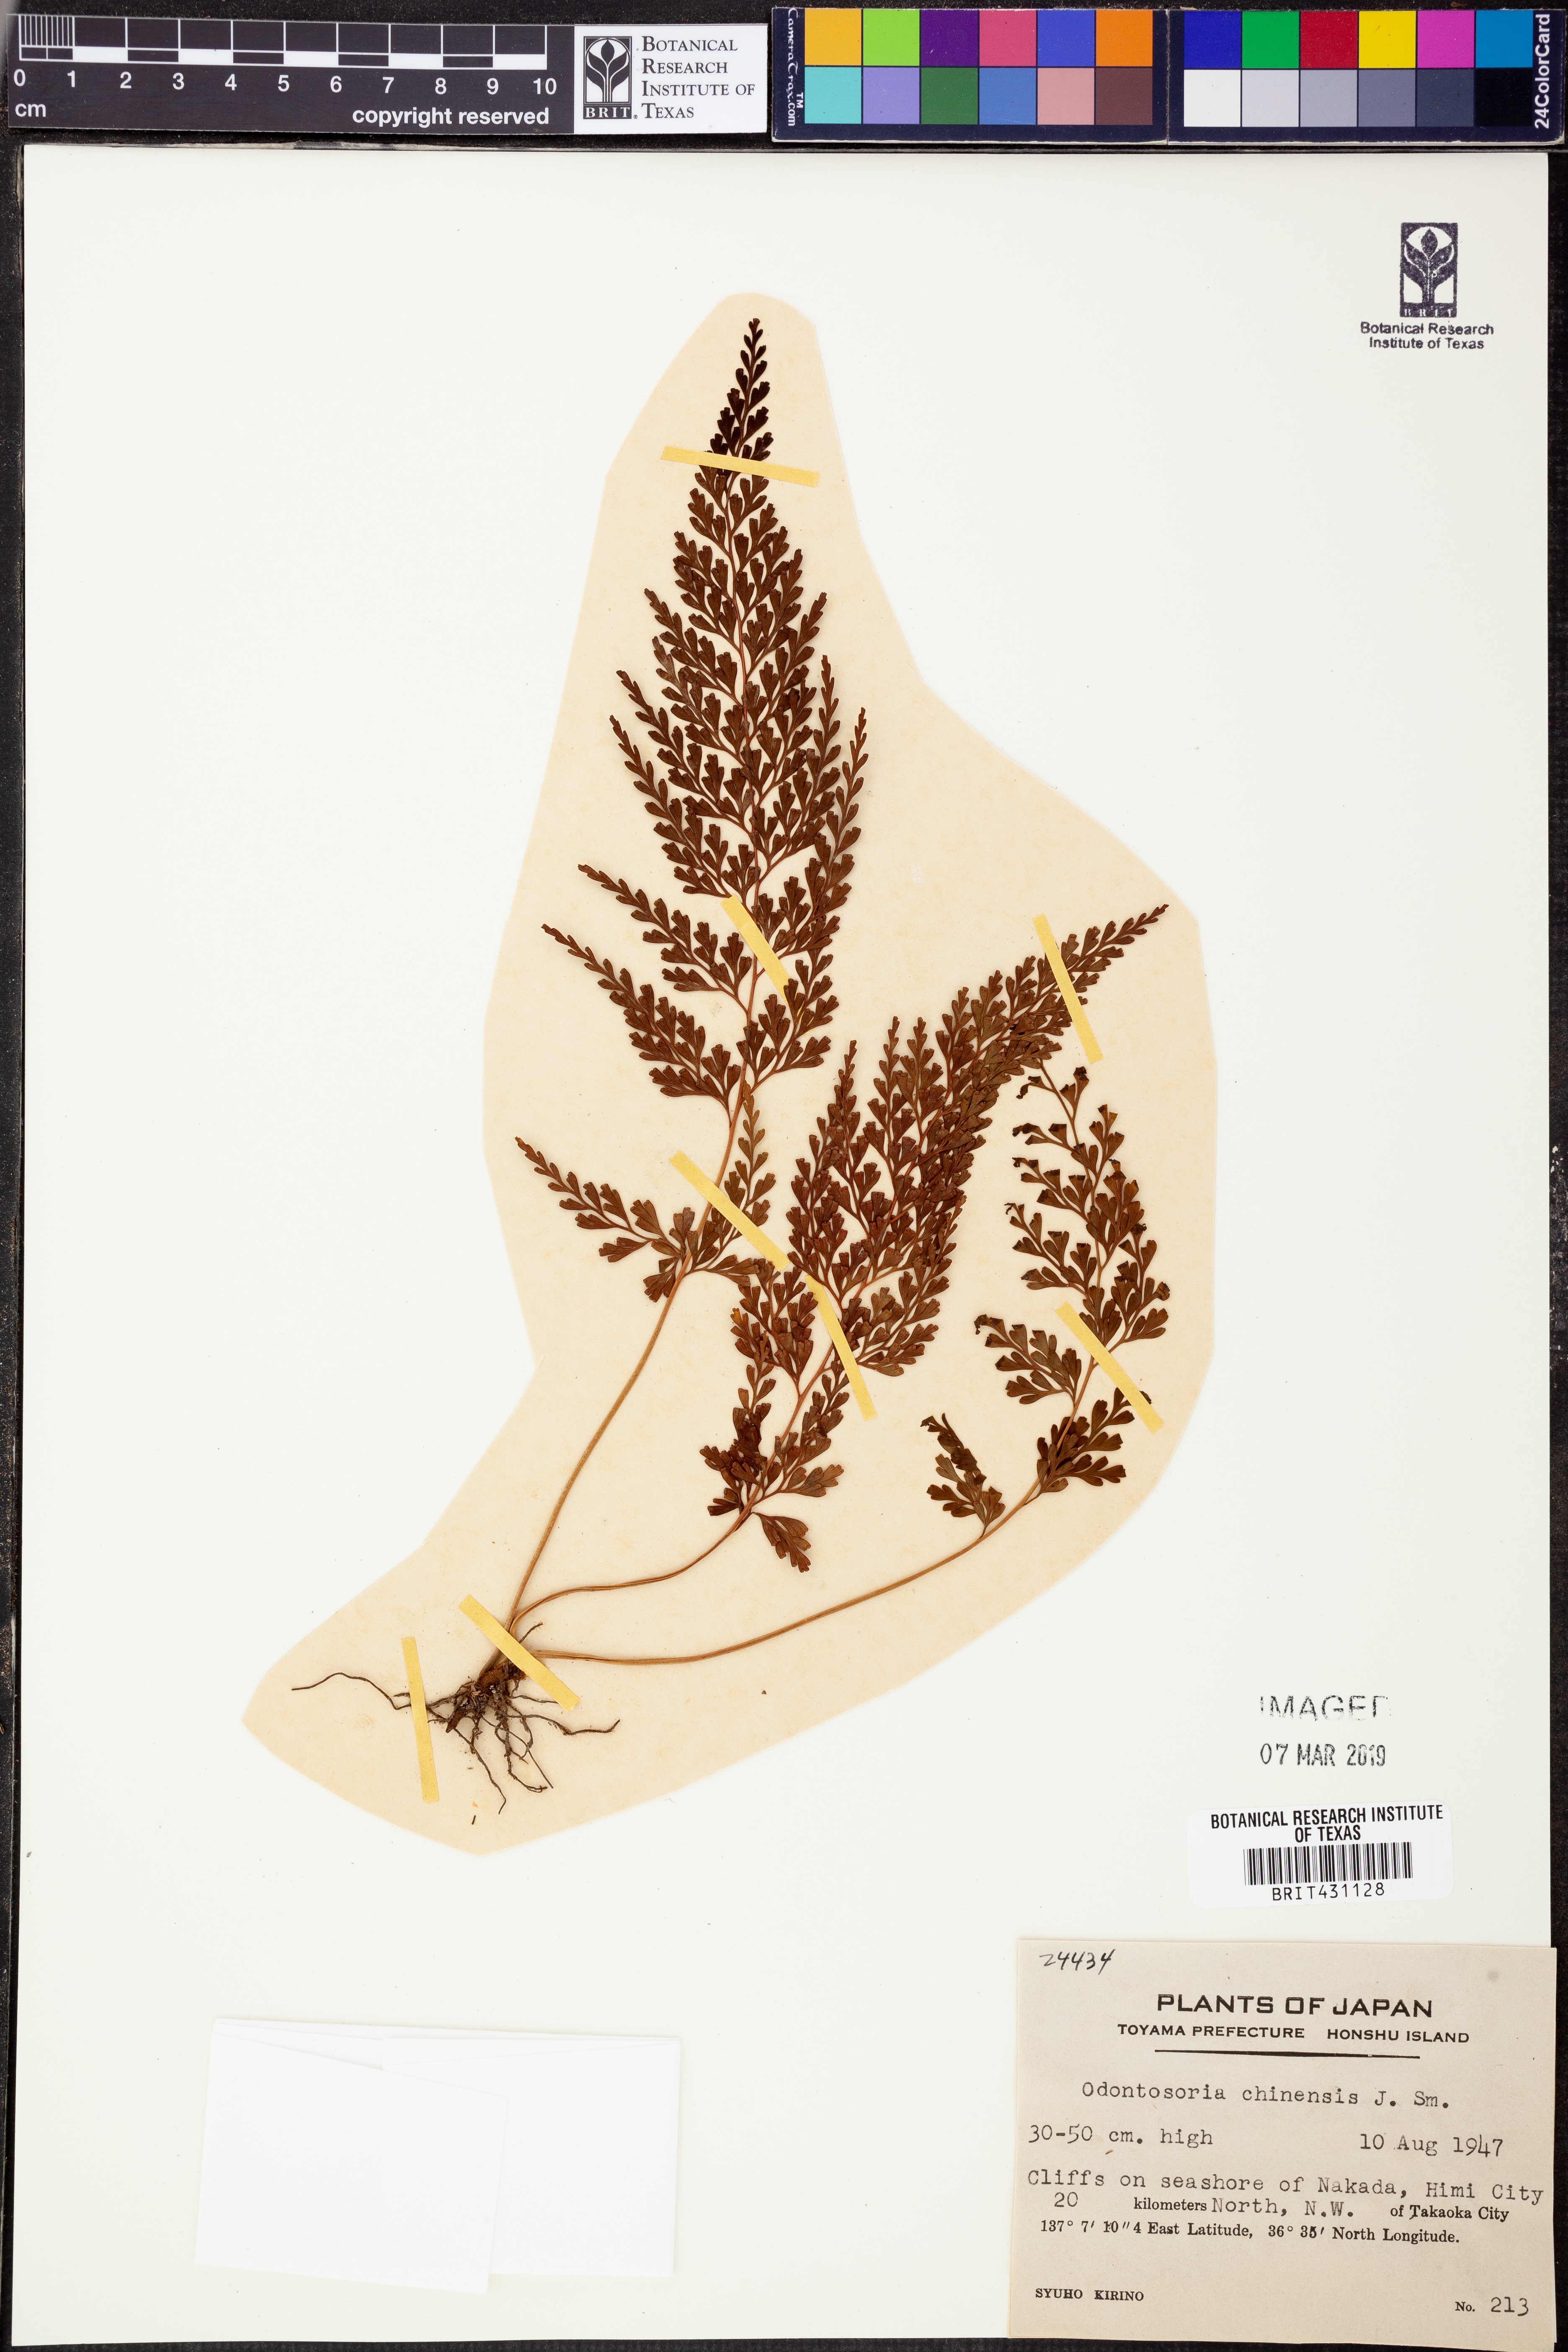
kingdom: Plantae
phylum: Tracheophyta
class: Polypodiopsida
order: Polypodiales
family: Lindsaeaceae
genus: Odontosoria
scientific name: Odontosoria chinensis
